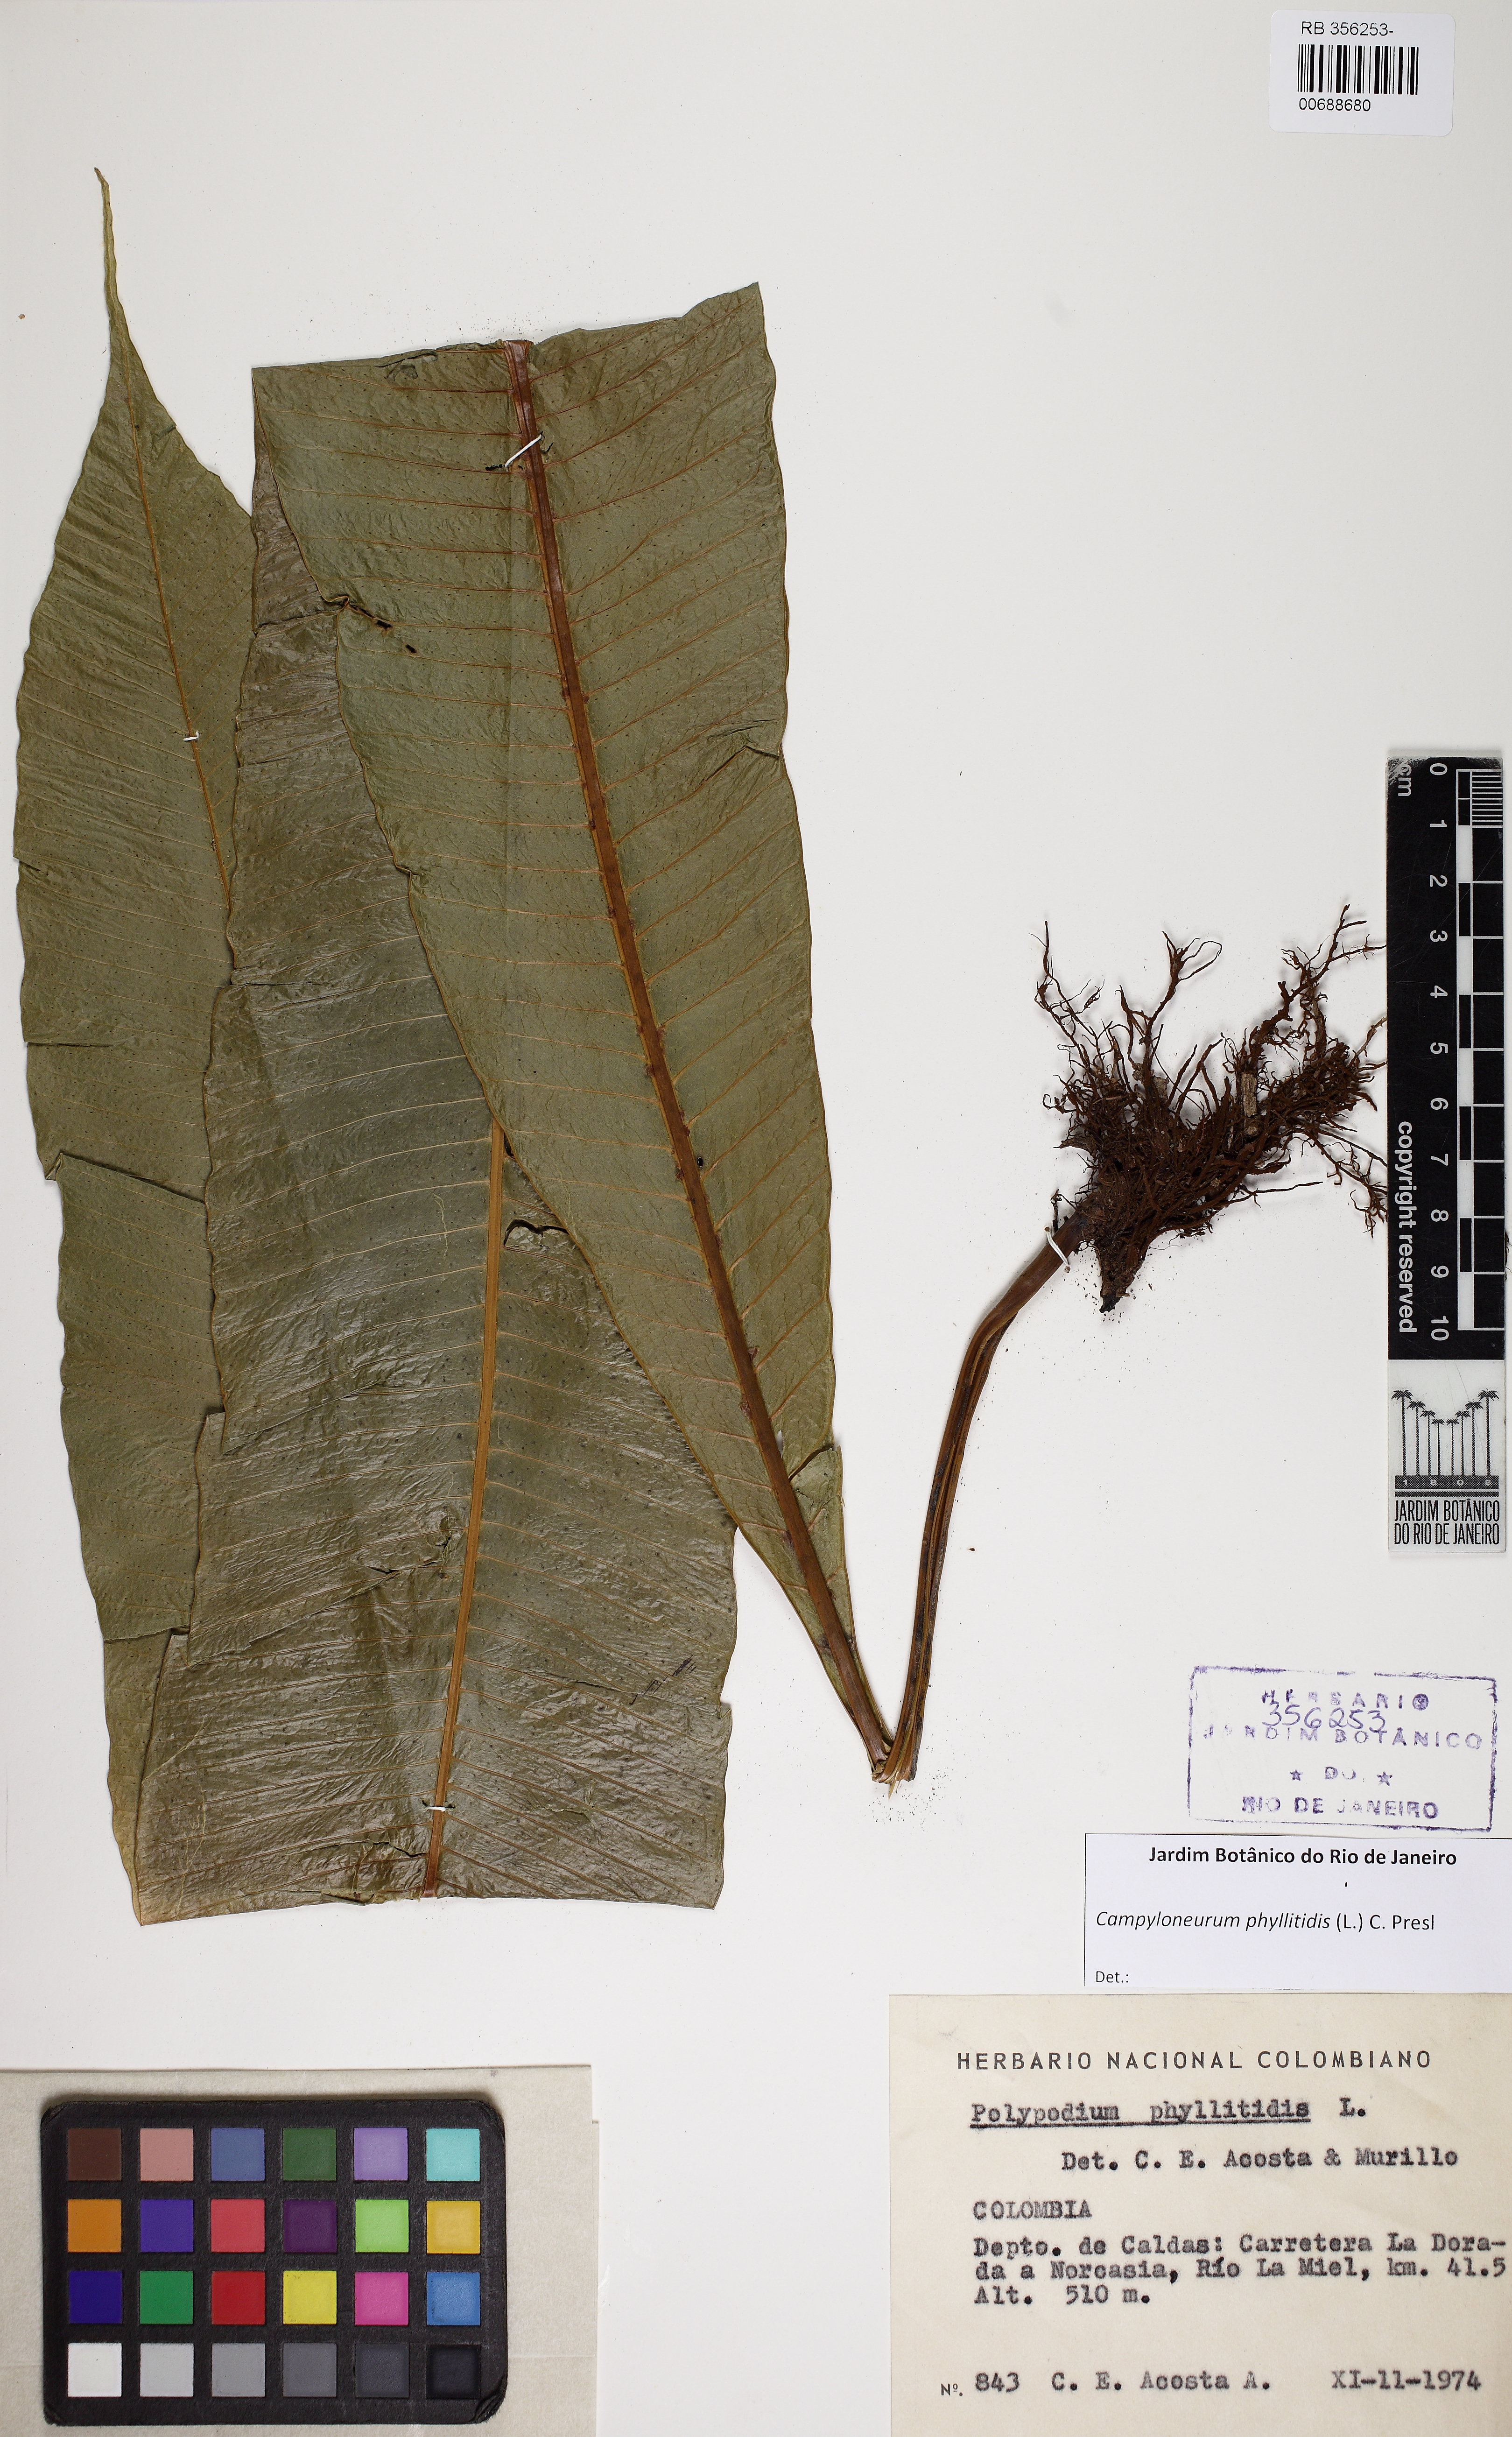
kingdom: Plantae
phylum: Tracheophyta
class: Polypodiopsida
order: Polypodiales
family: Polypodiaceae
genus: Campyloneurum
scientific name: Campyloneurum phyllitidis
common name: Cow-tongue fern
